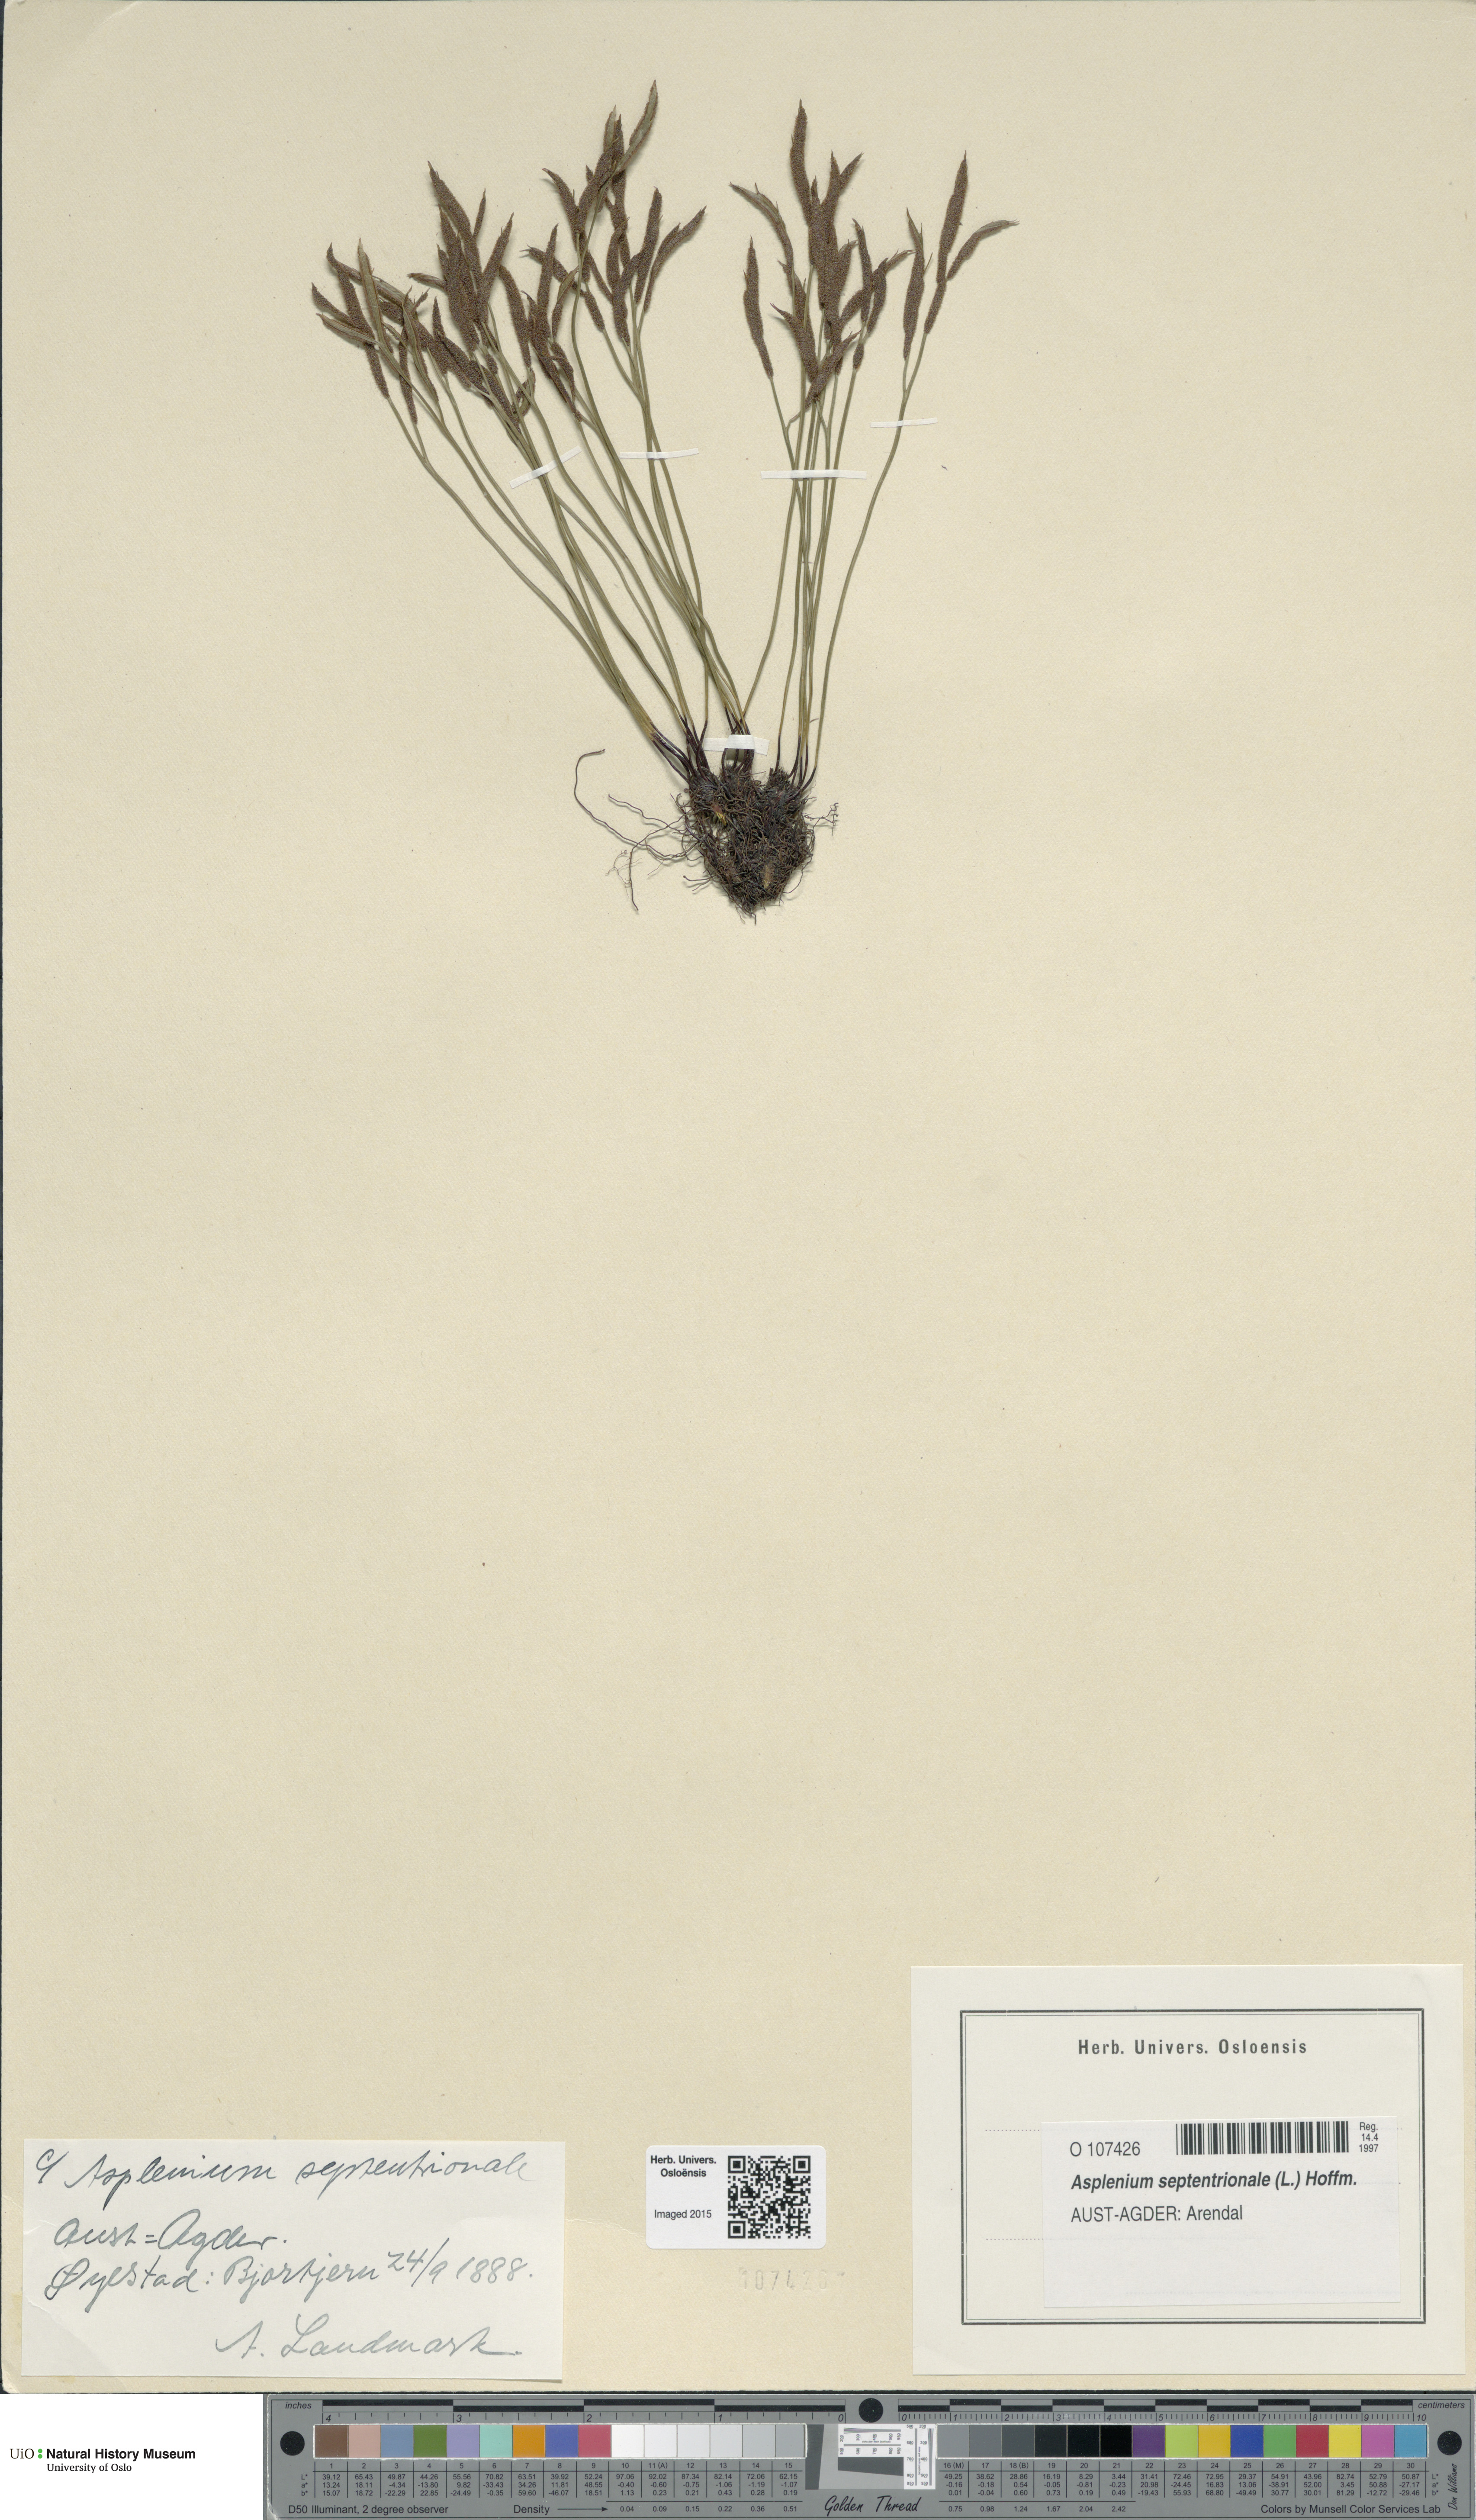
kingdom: Plantae
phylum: Tracheophyta
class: Polypodiopsida
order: Polypodiales
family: Aspleniaceae
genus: Asplenium
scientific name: Asplenium septentrionale
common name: Forked spleenwort
